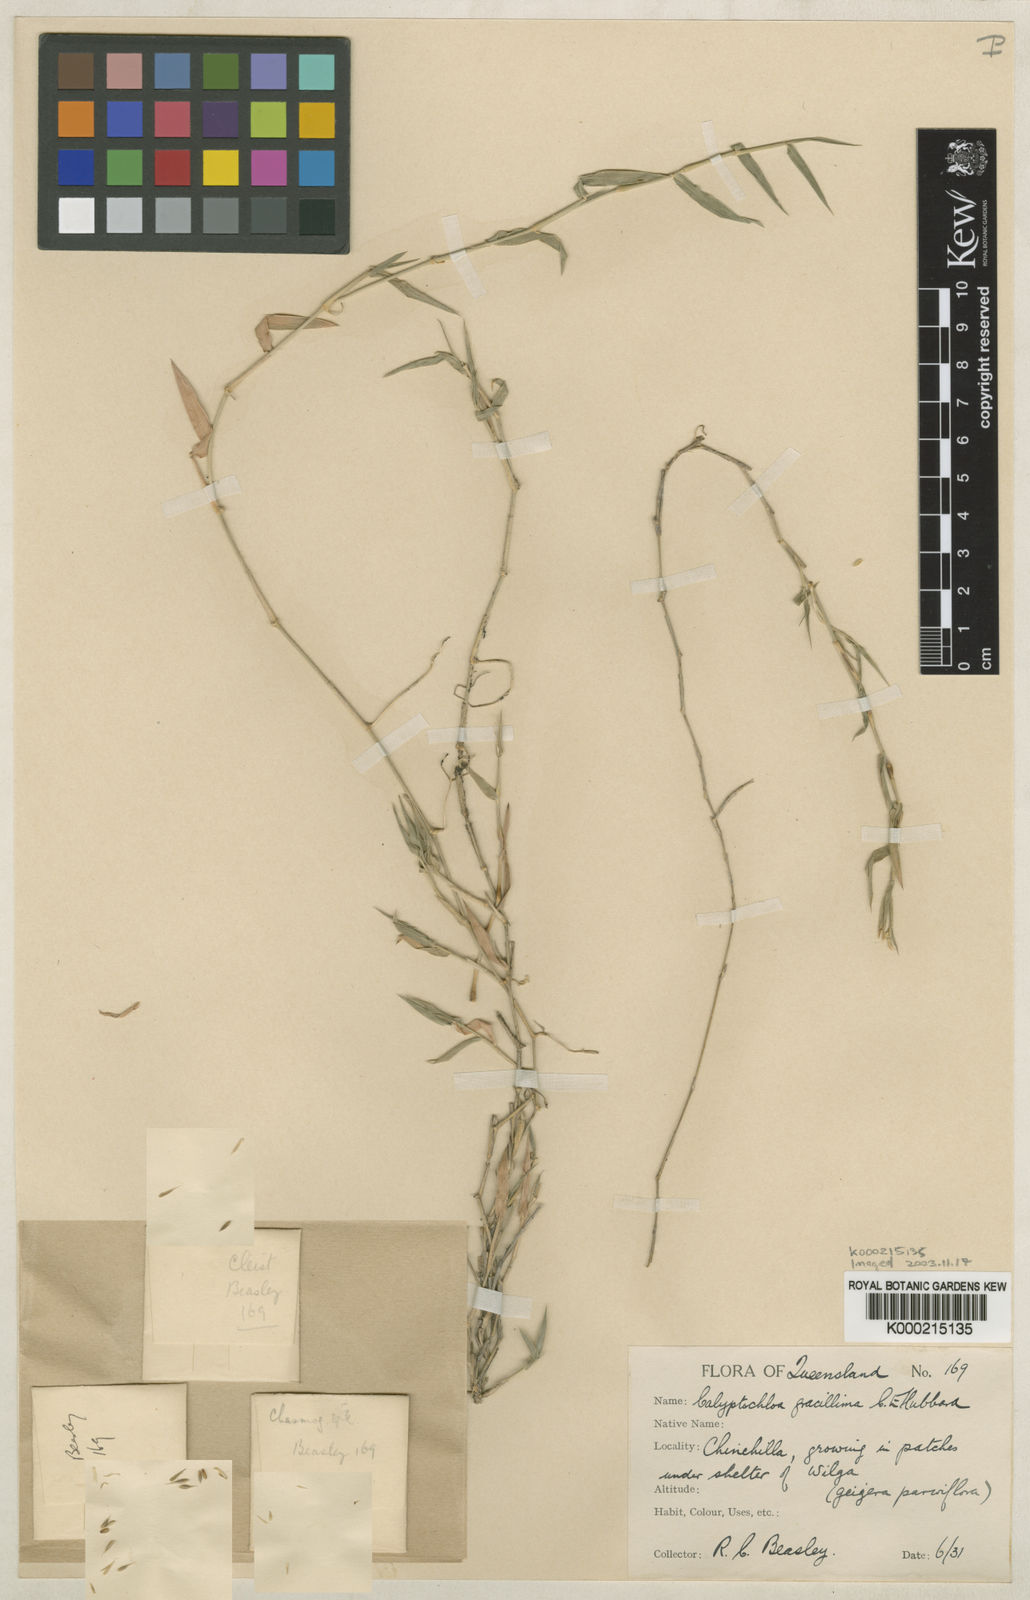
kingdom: Plantae
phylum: Tracheophyta
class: Liliopsida
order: Poales
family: Poaceae
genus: Calyptochloa
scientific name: Calyptochloa gracillima
